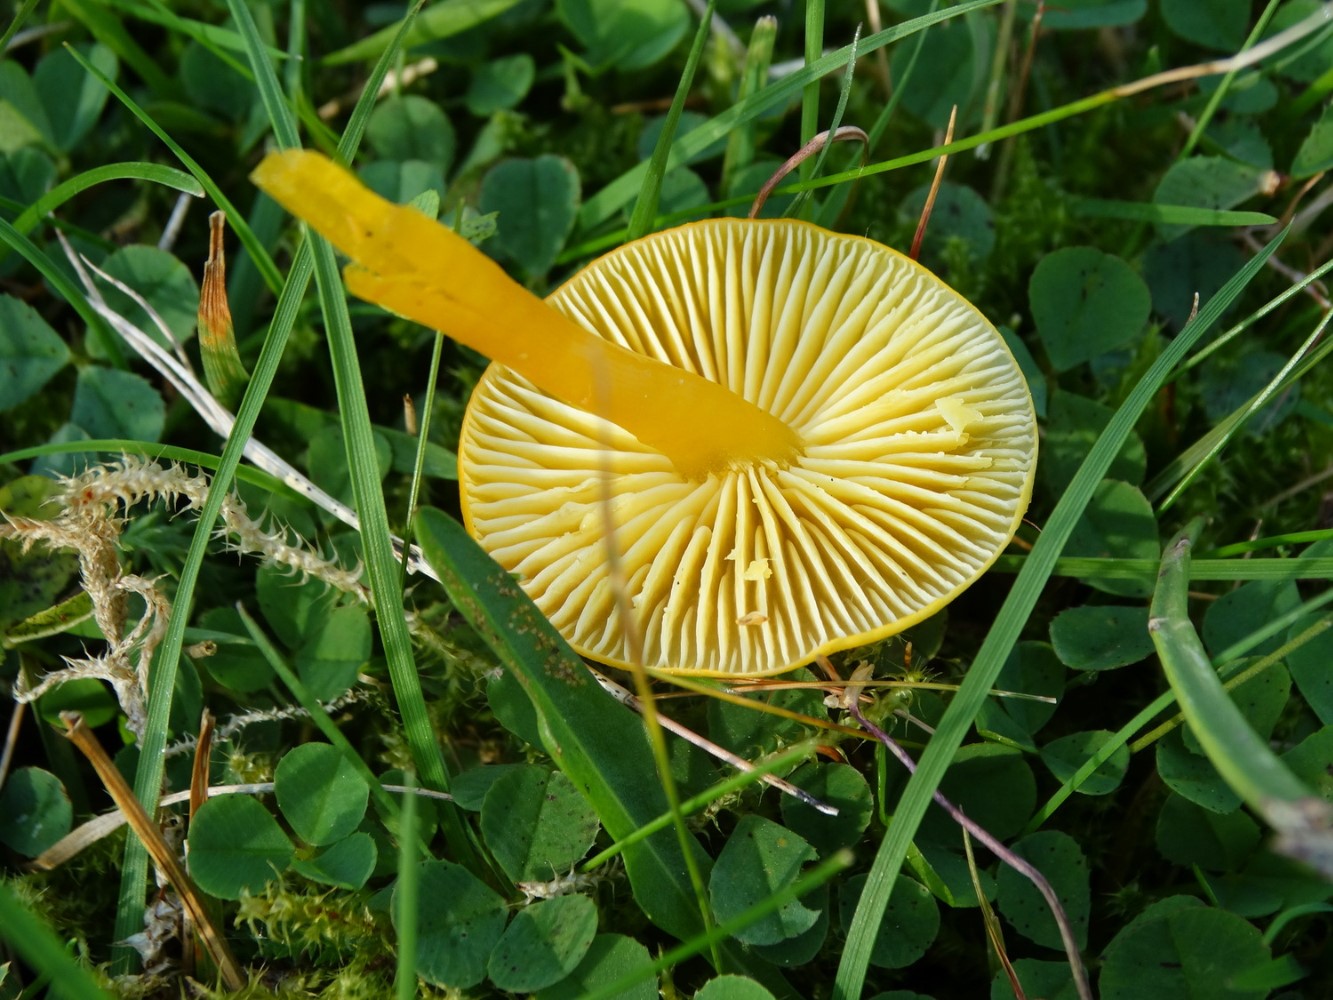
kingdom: Fungi
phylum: Basidiomycota
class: Agaricomycetes
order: Agaricales
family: Hygrophoraceae
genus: Hygrocybe
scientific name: Hygrocybe ceracea
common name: voksgul vokshat
